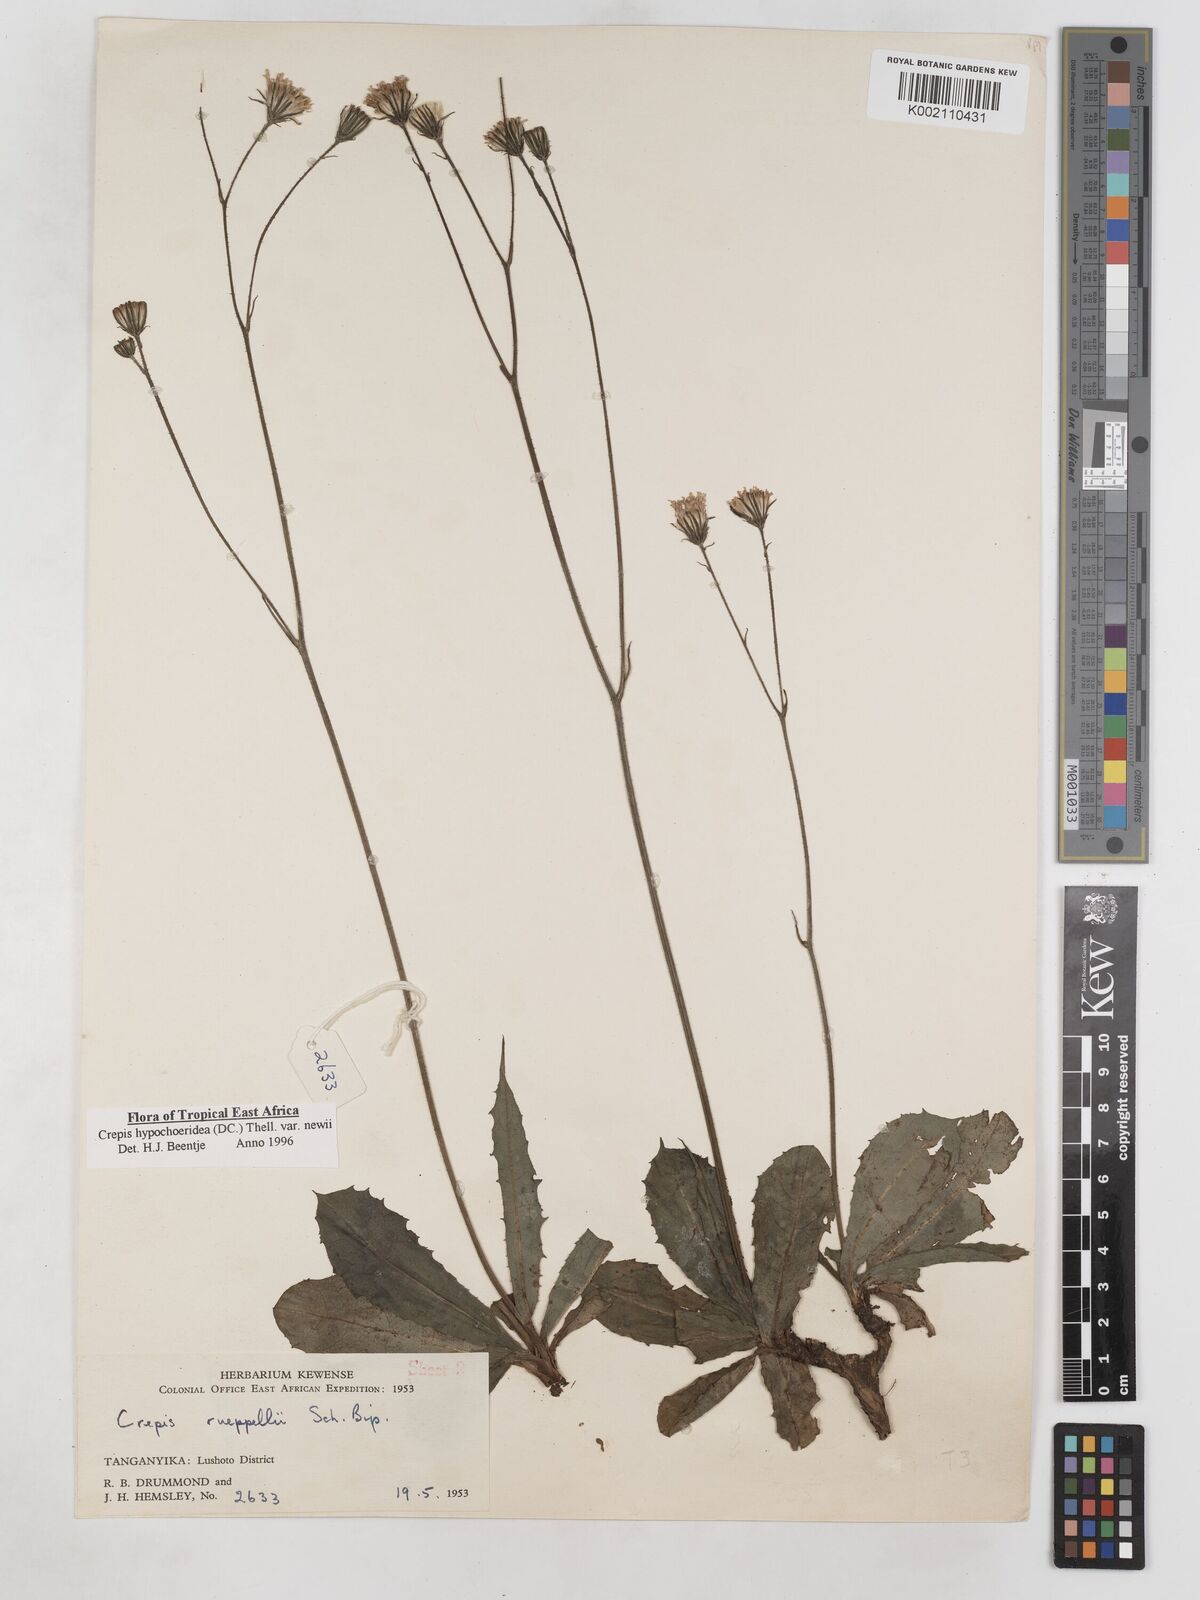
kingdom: Plantae
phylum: Tracheophyta
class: Magnoliopsida
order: Asterales
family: Asteraceae
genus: Crepis
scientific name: Crepis hypochoeridea
